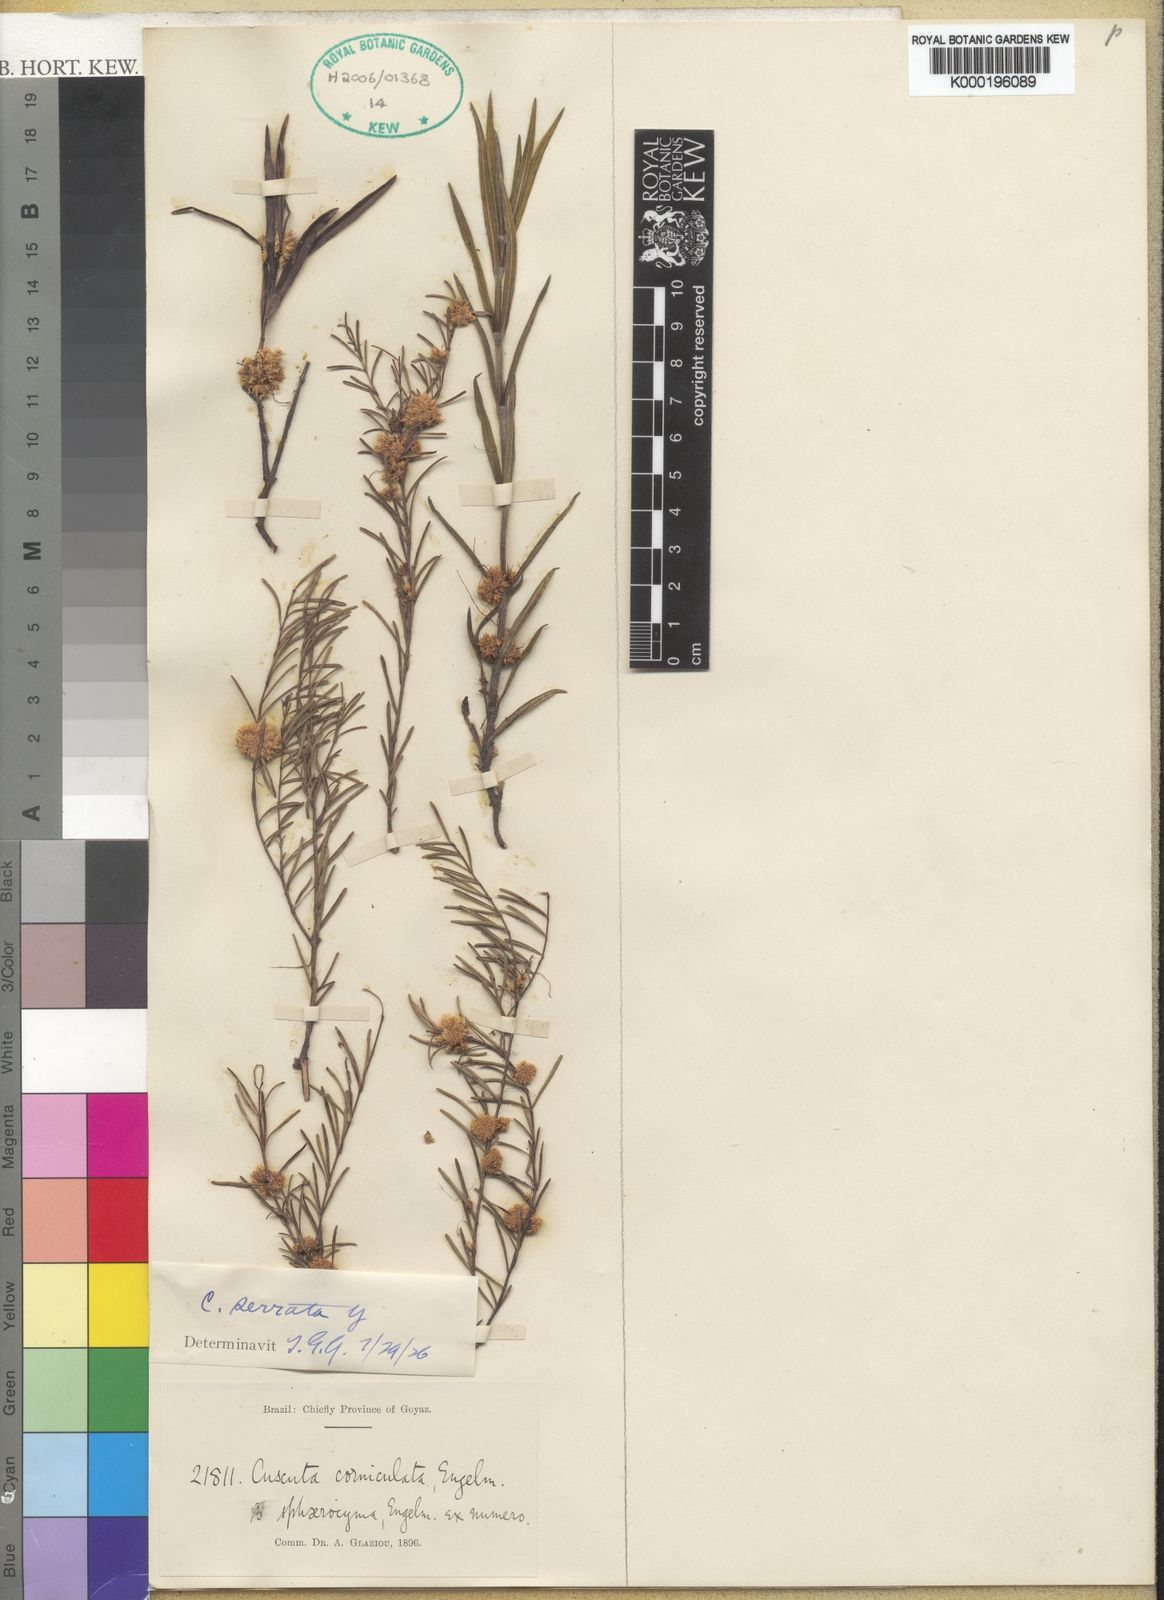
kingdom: Plantae
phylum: Tracheophyta
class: Magnoliopsida
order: Solanales
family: Convolvulaceae
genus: Cuscuta
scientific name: Cuscuta serrata
